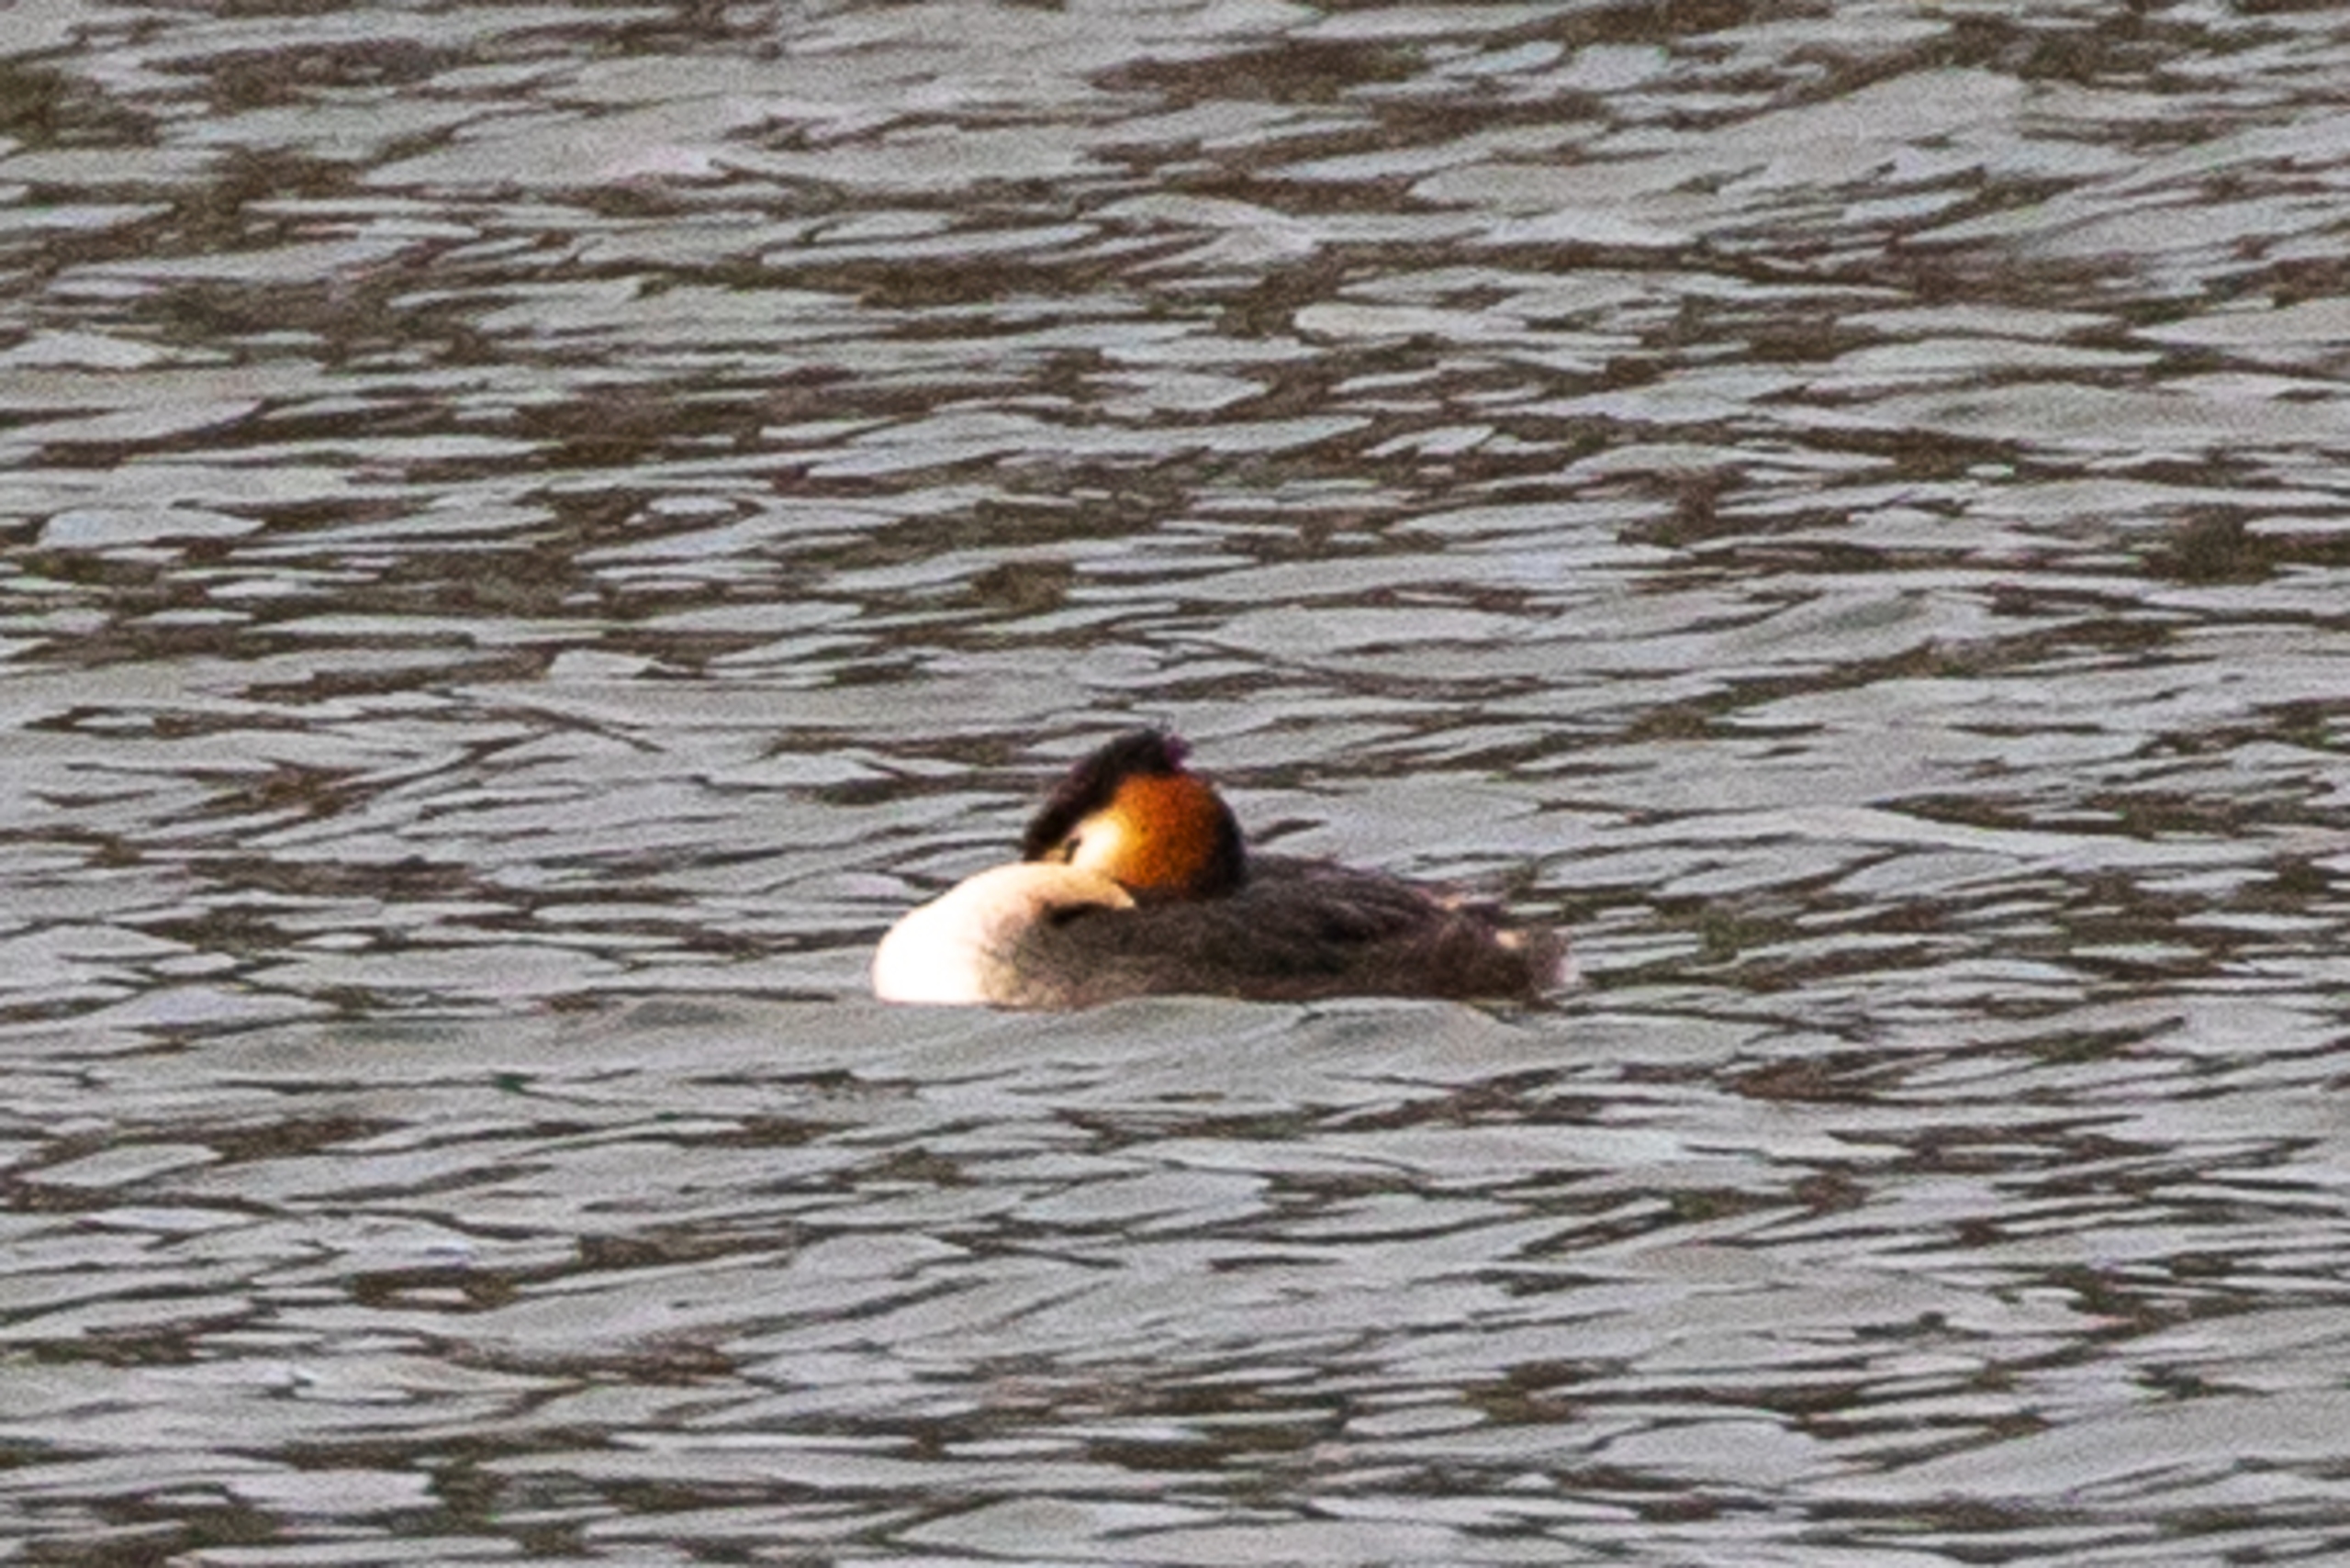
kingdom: Animalia
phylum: Chordata
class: Aves
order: Podicipediformes
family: Podicipedidae
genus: Podiceps
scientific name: Podiceps cristatus
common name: Toppet lappedykker
